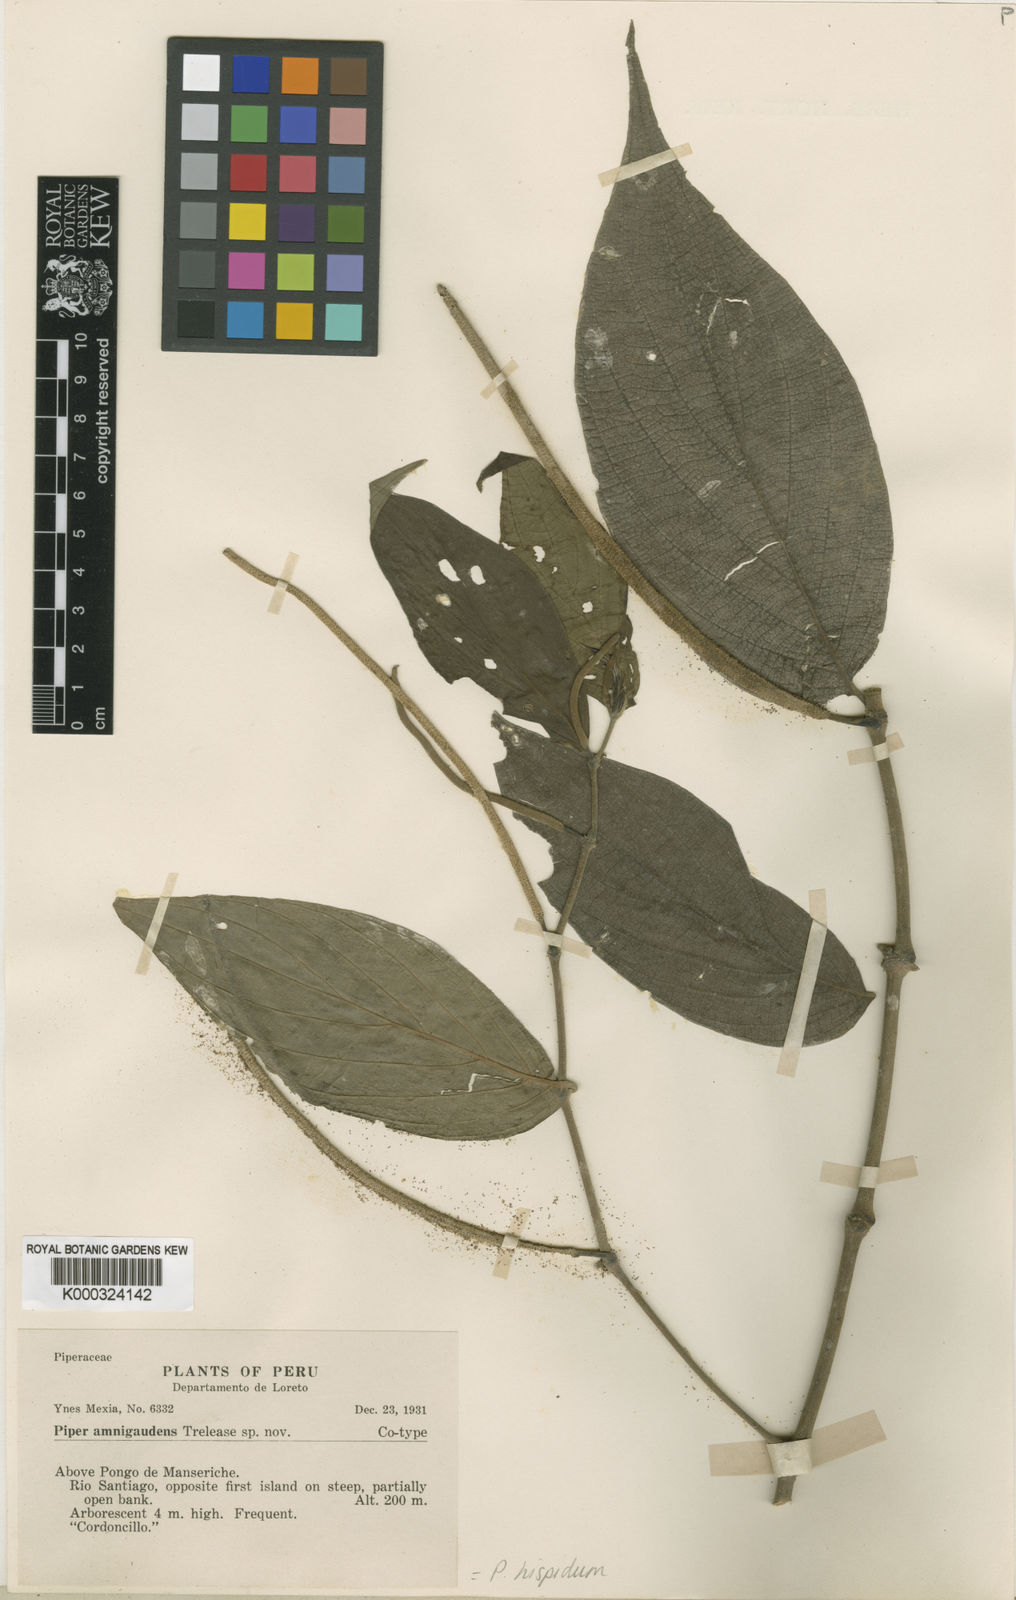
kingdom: Plantae
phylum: Tracheophyta
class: Magnoliopsida
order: Piperales
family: Piperaceae
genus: Piper
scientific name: Piper hispidum
